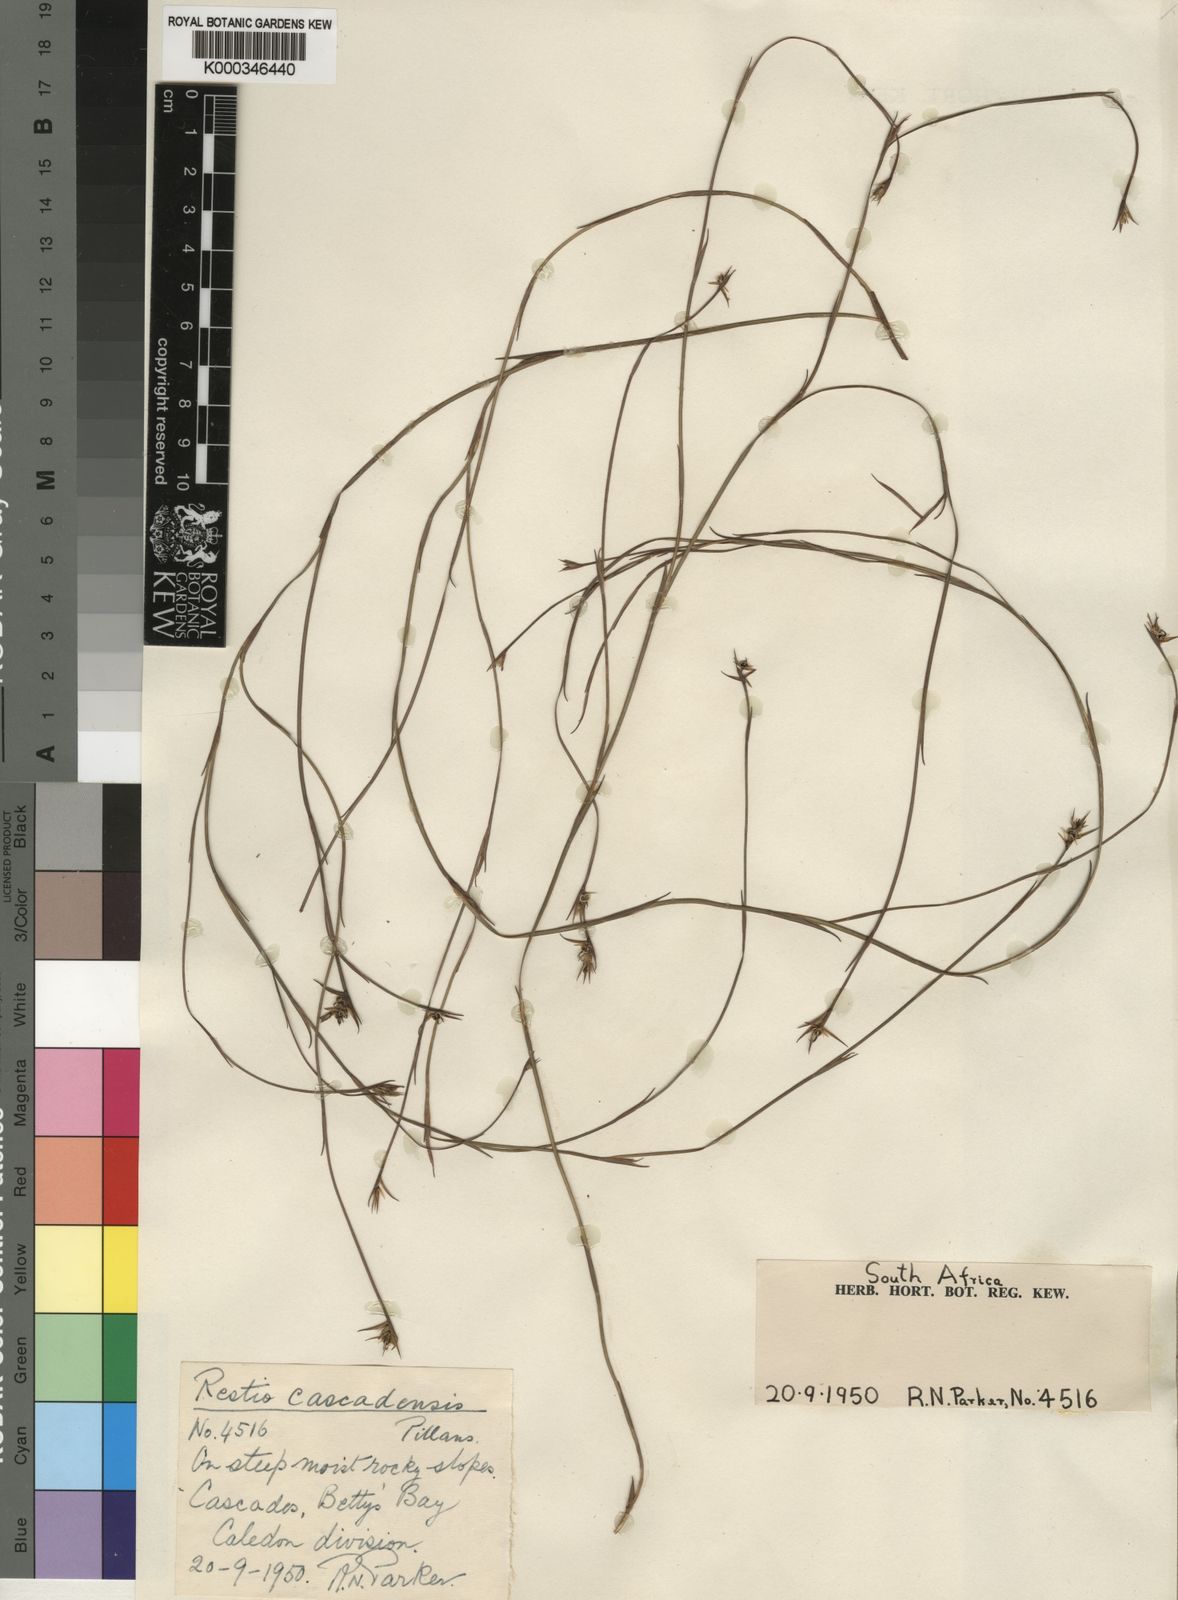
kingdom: Plantae
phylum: Tracheophyta
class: Liliopsida
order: Poales
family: Restionaceae
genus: Platycaulos
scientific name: Platycaulos callistachyus
